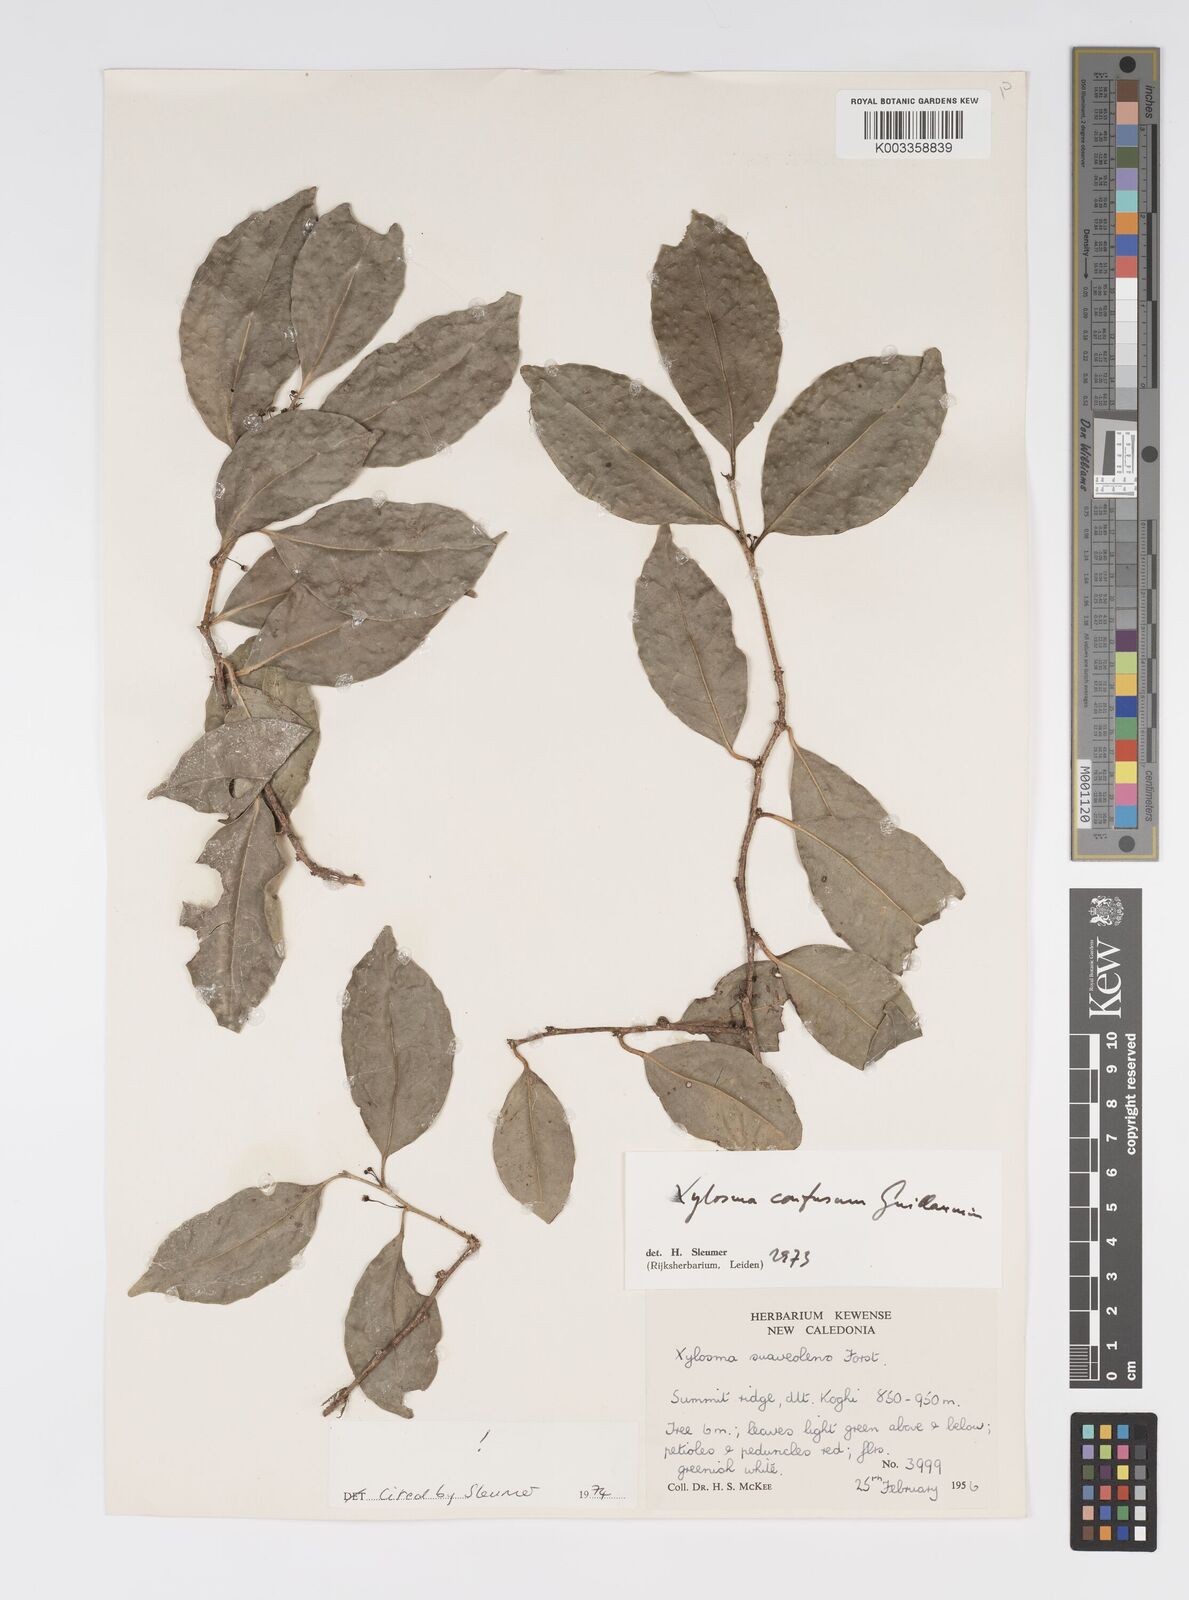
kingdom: Plantae
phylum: Tracheophyta
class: Magnoliopsida
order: Malpighiales
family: Salicaceae
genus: Xylosma
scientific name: Xylosma confusa
